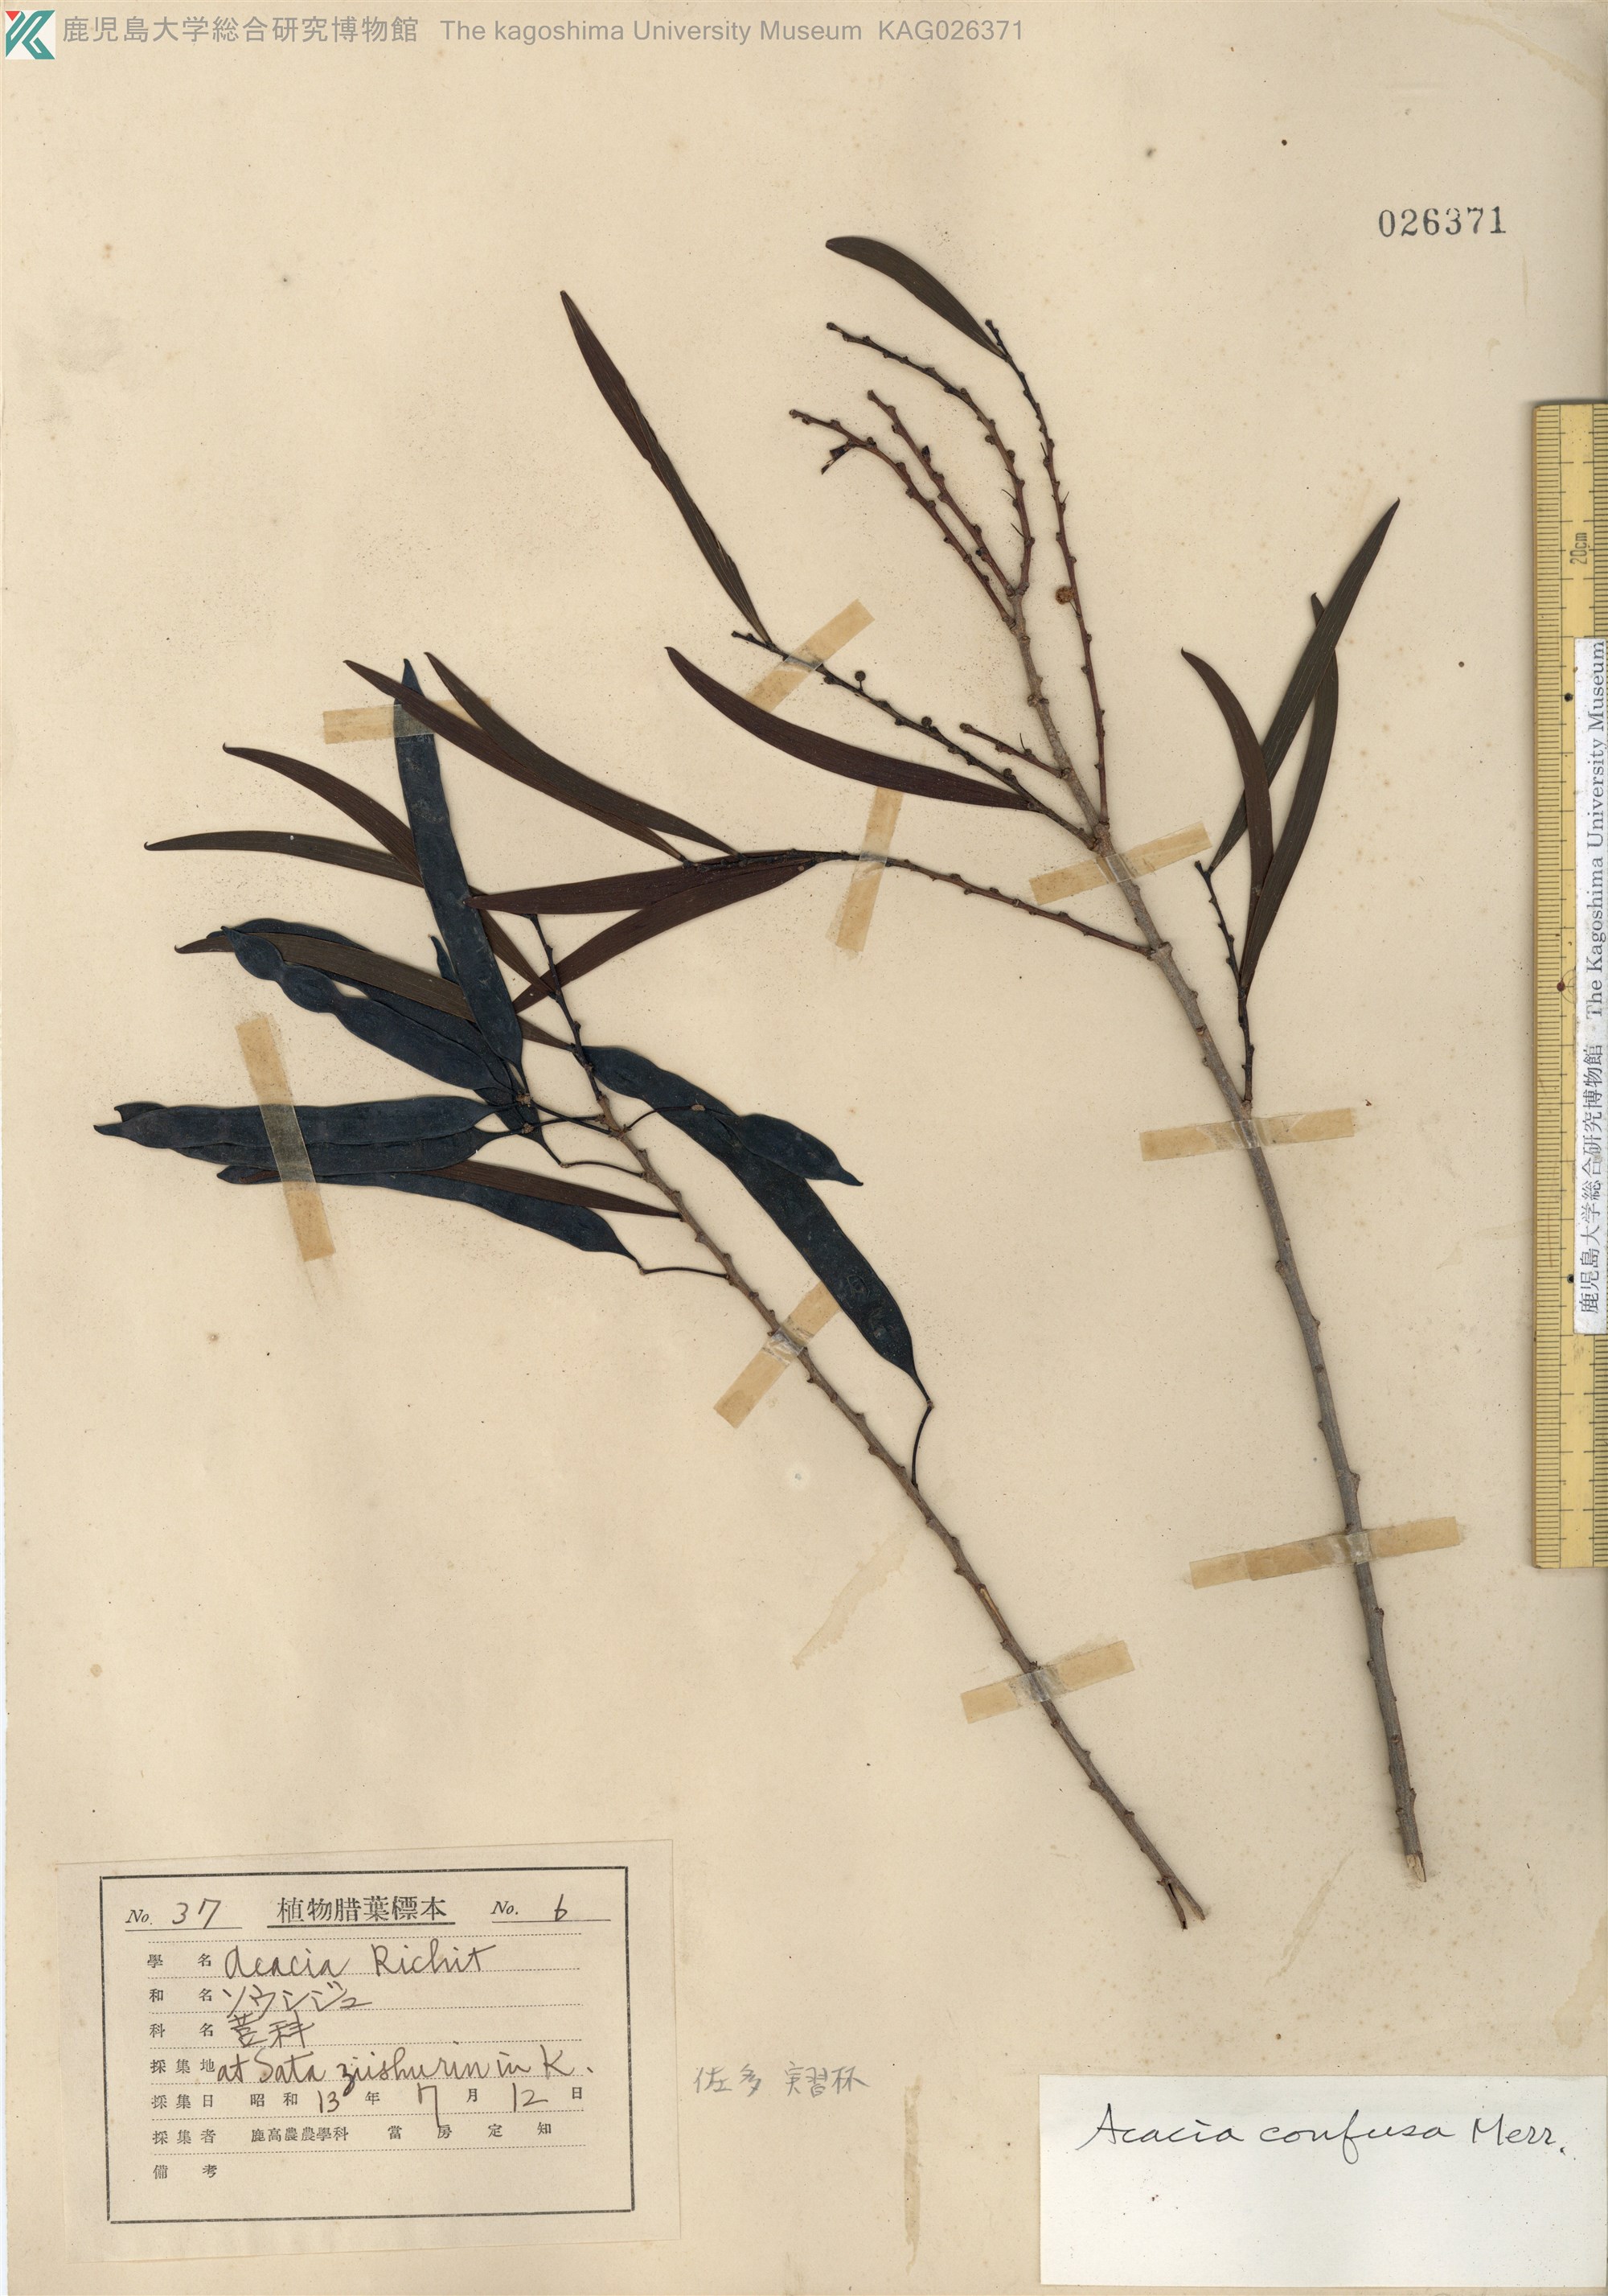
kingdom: Plantae
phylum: Tracheophyta
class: Magnoliopsida
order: Fabales
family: Fabaceae
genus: Acacia
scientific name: Acacia confusa
